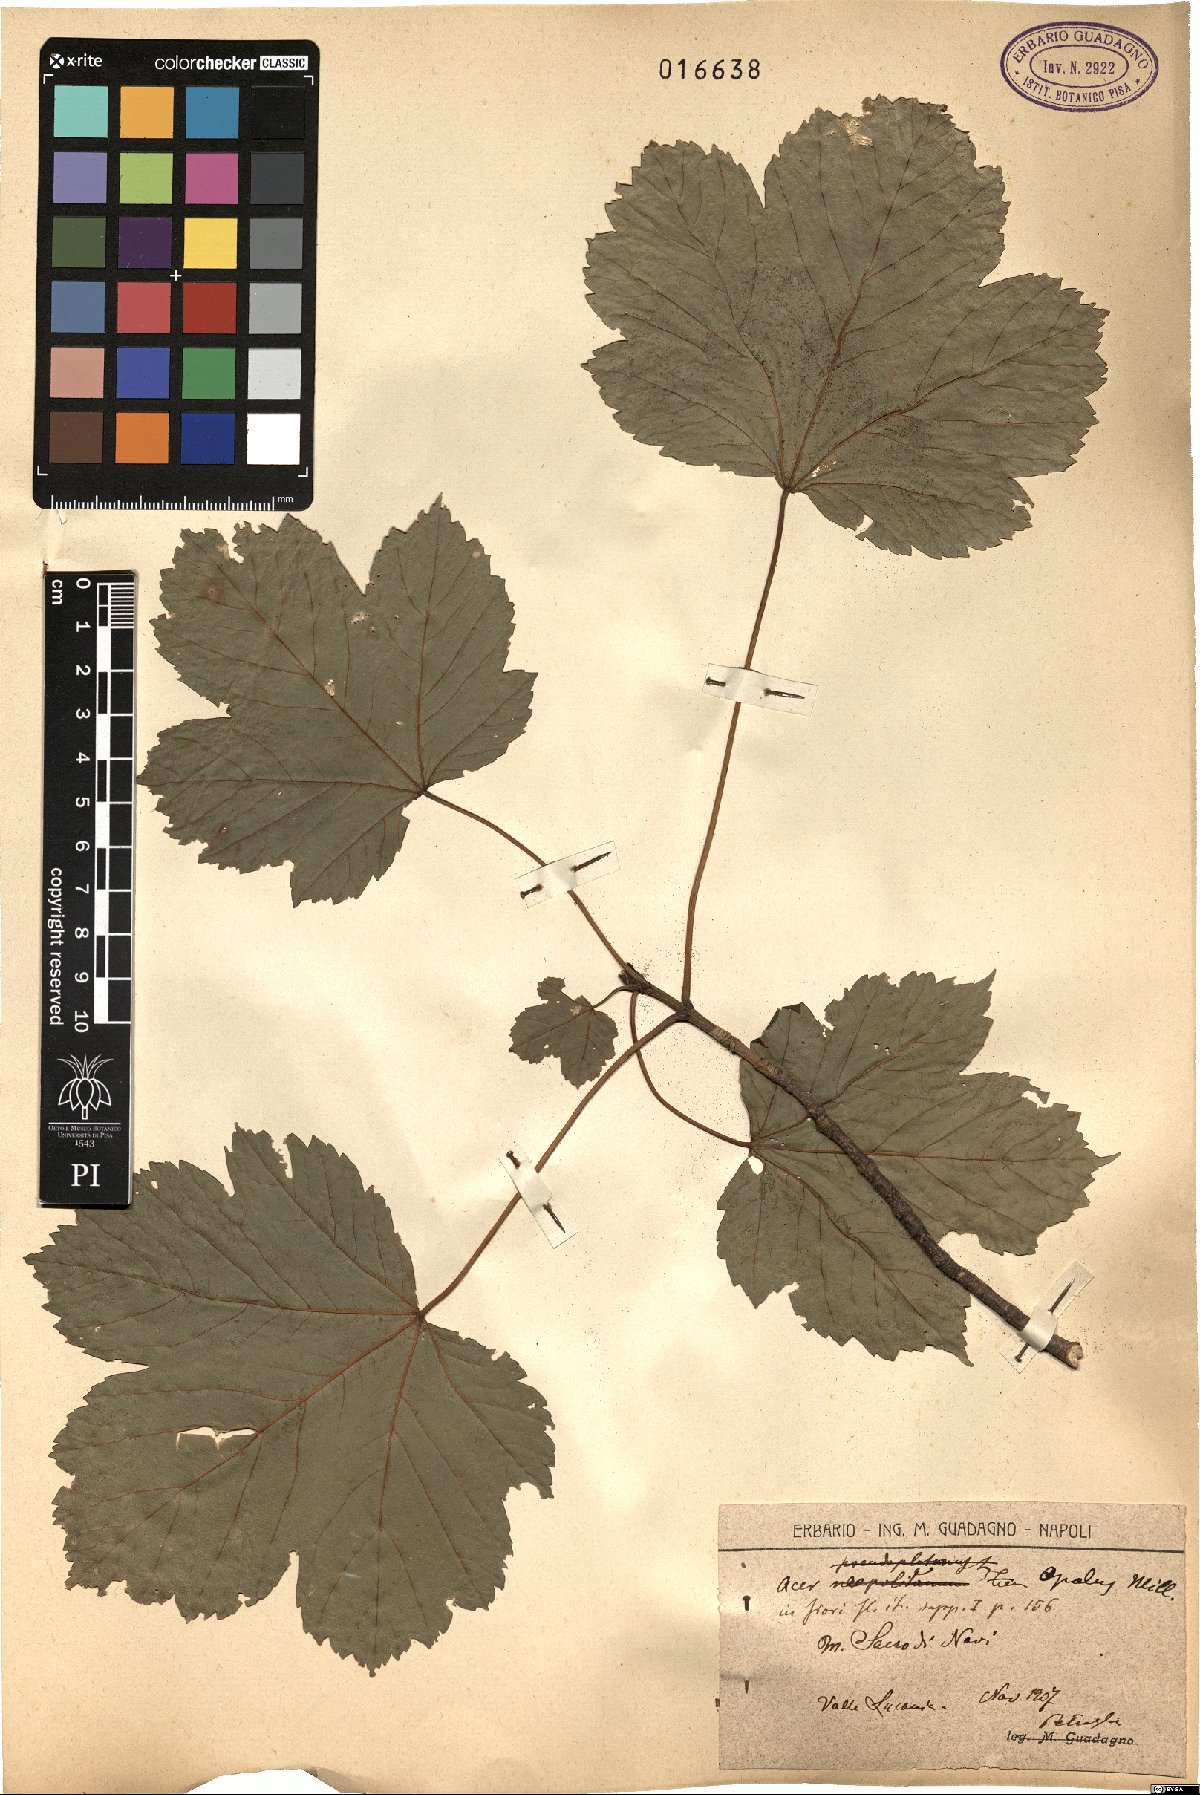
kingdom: Plantae
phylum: Tracheophyta
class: Magnoliopsida
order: Sapindales
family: Sapindaceae
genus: Acer
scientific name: Acer opalus
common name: Italian maple
